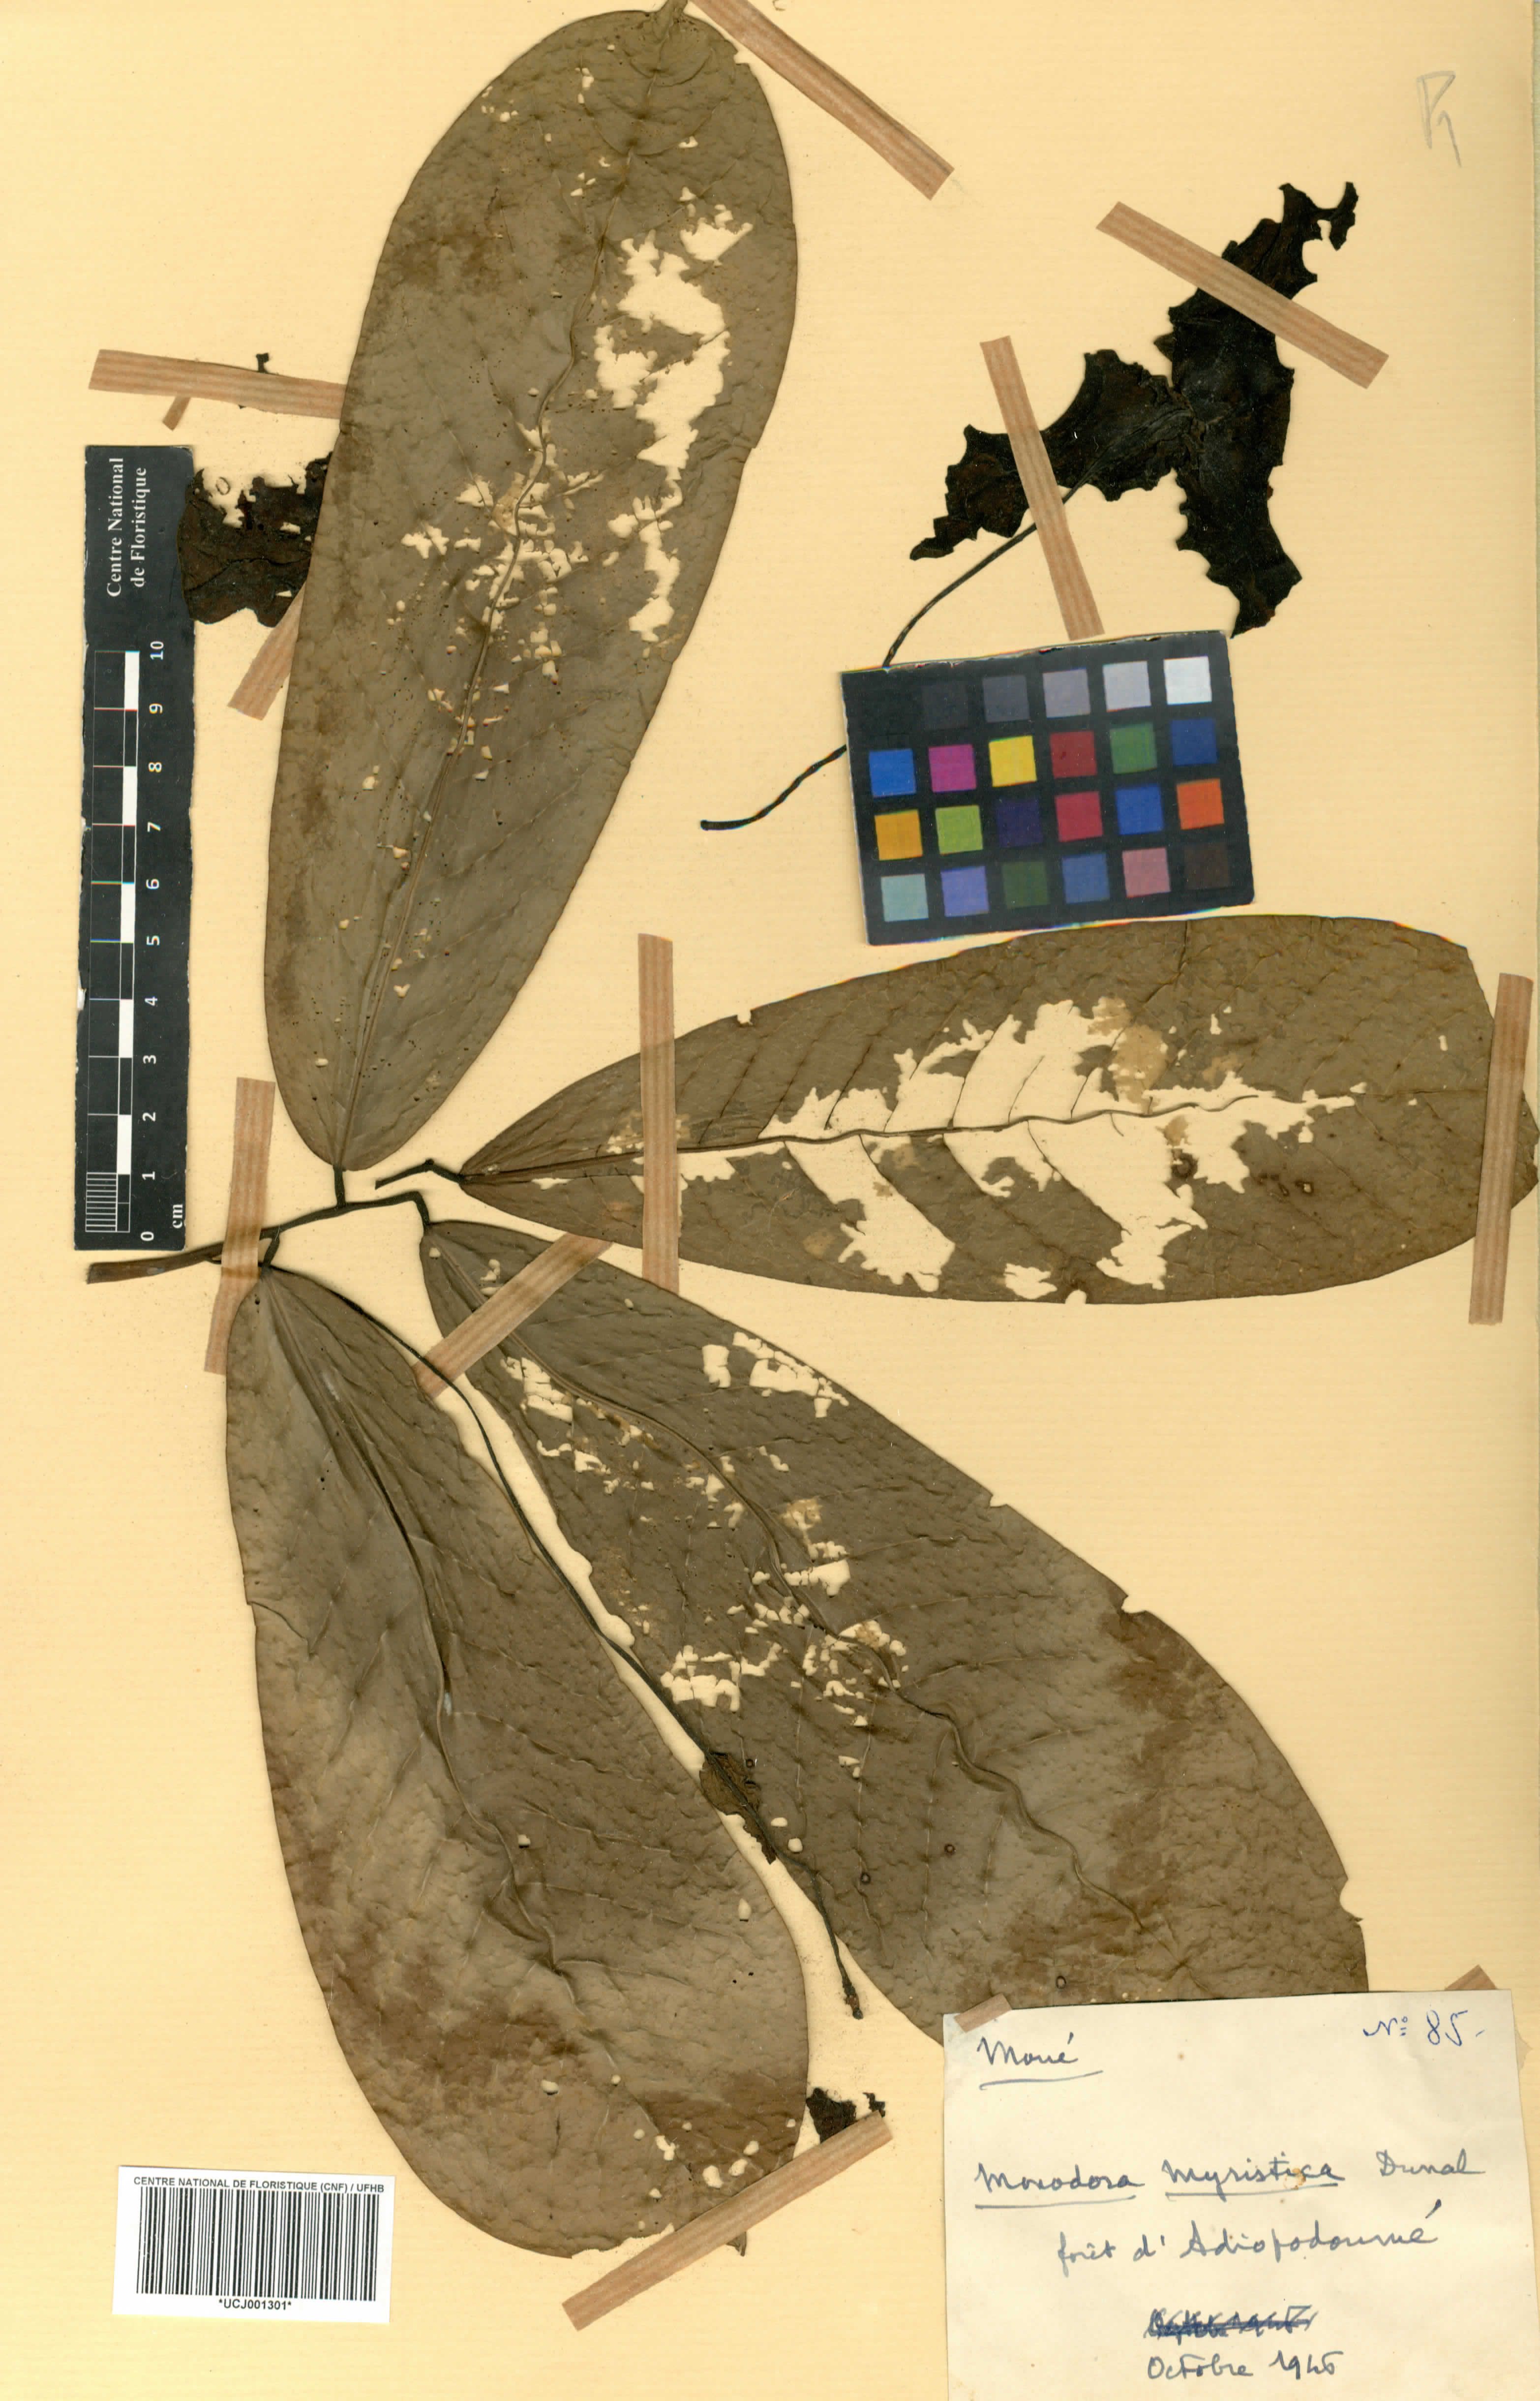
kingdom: Plantae
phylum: Tracheophyta
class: Magnoliopsida
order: Magnoliales
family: Annonaceae
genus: Monodora
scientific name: Monodora myristica
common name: African nutmeg
